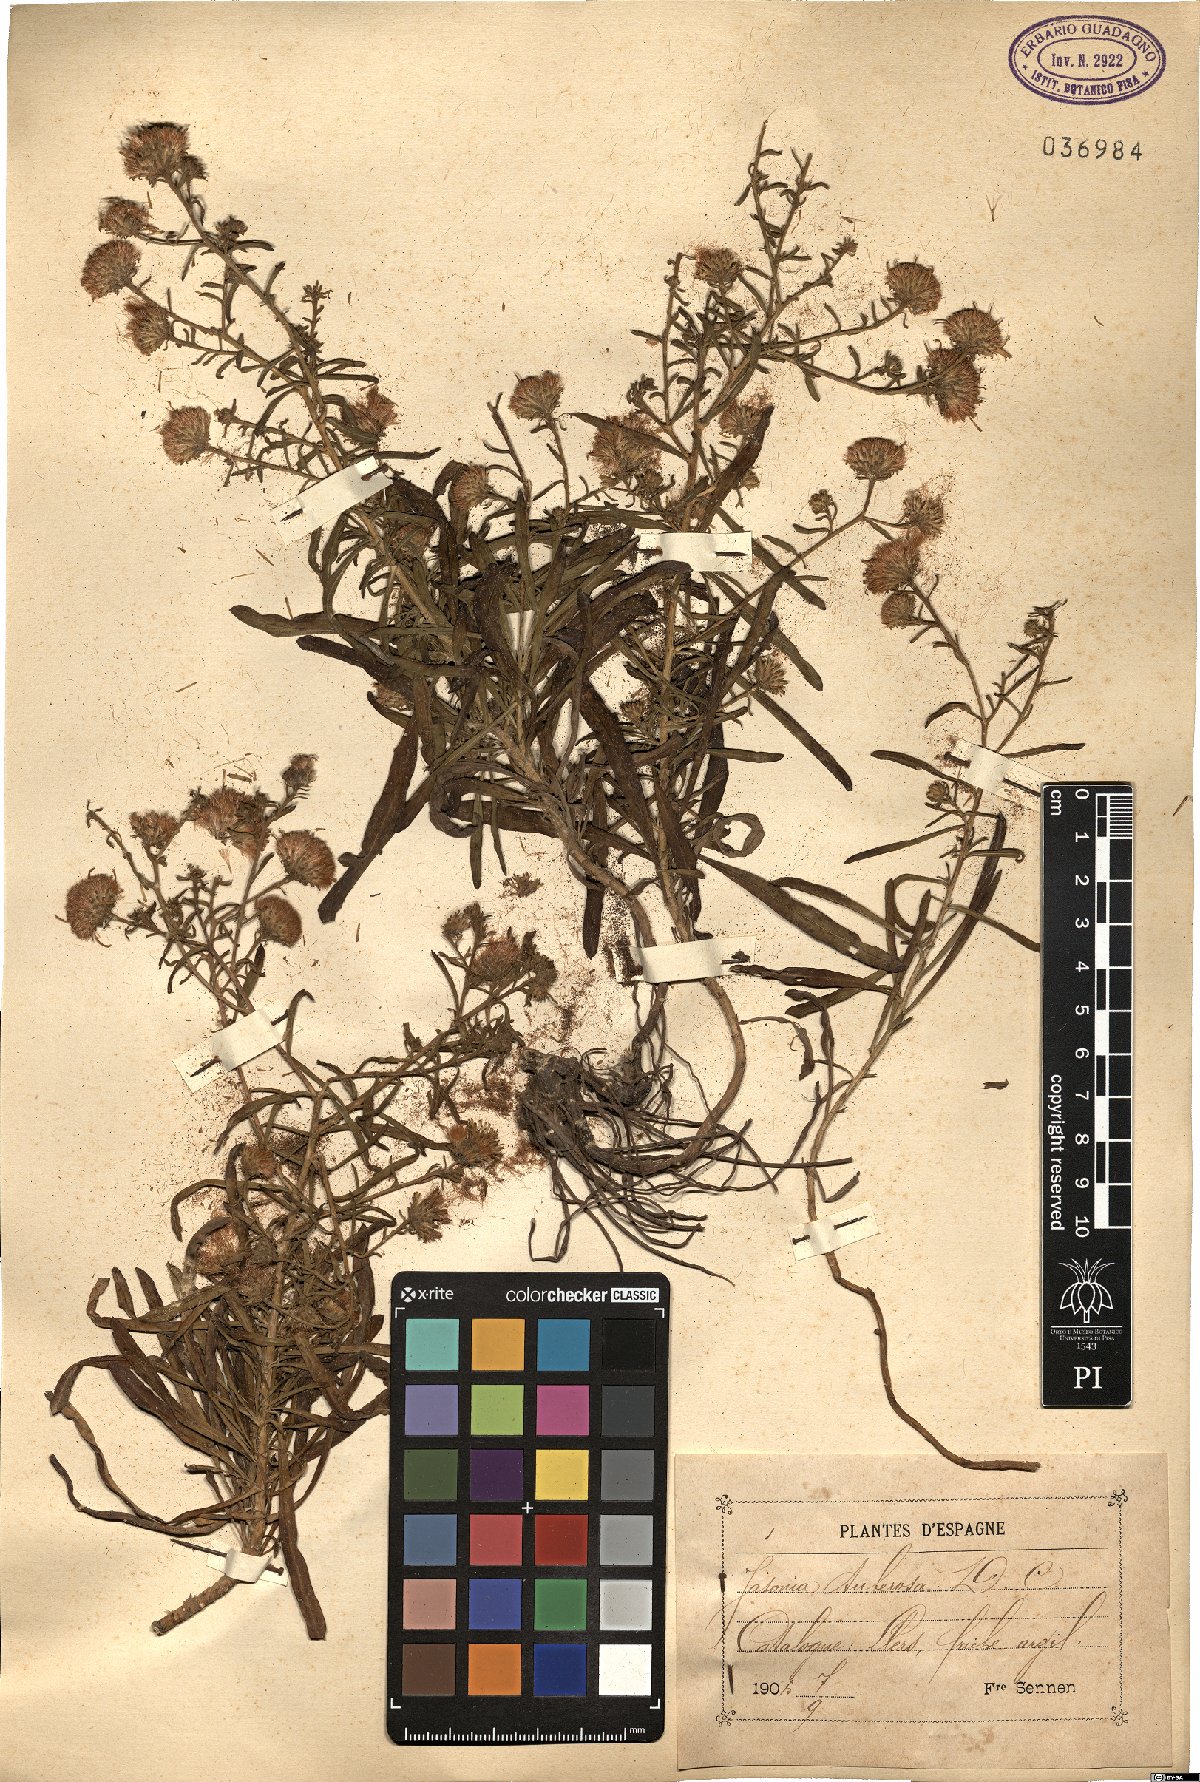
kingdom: Plantae
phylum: Tracheophyta
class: Magnoliopsida
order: Asterales
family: Asteraceae
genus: Jasonia
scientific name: Jasonia tuberosa
